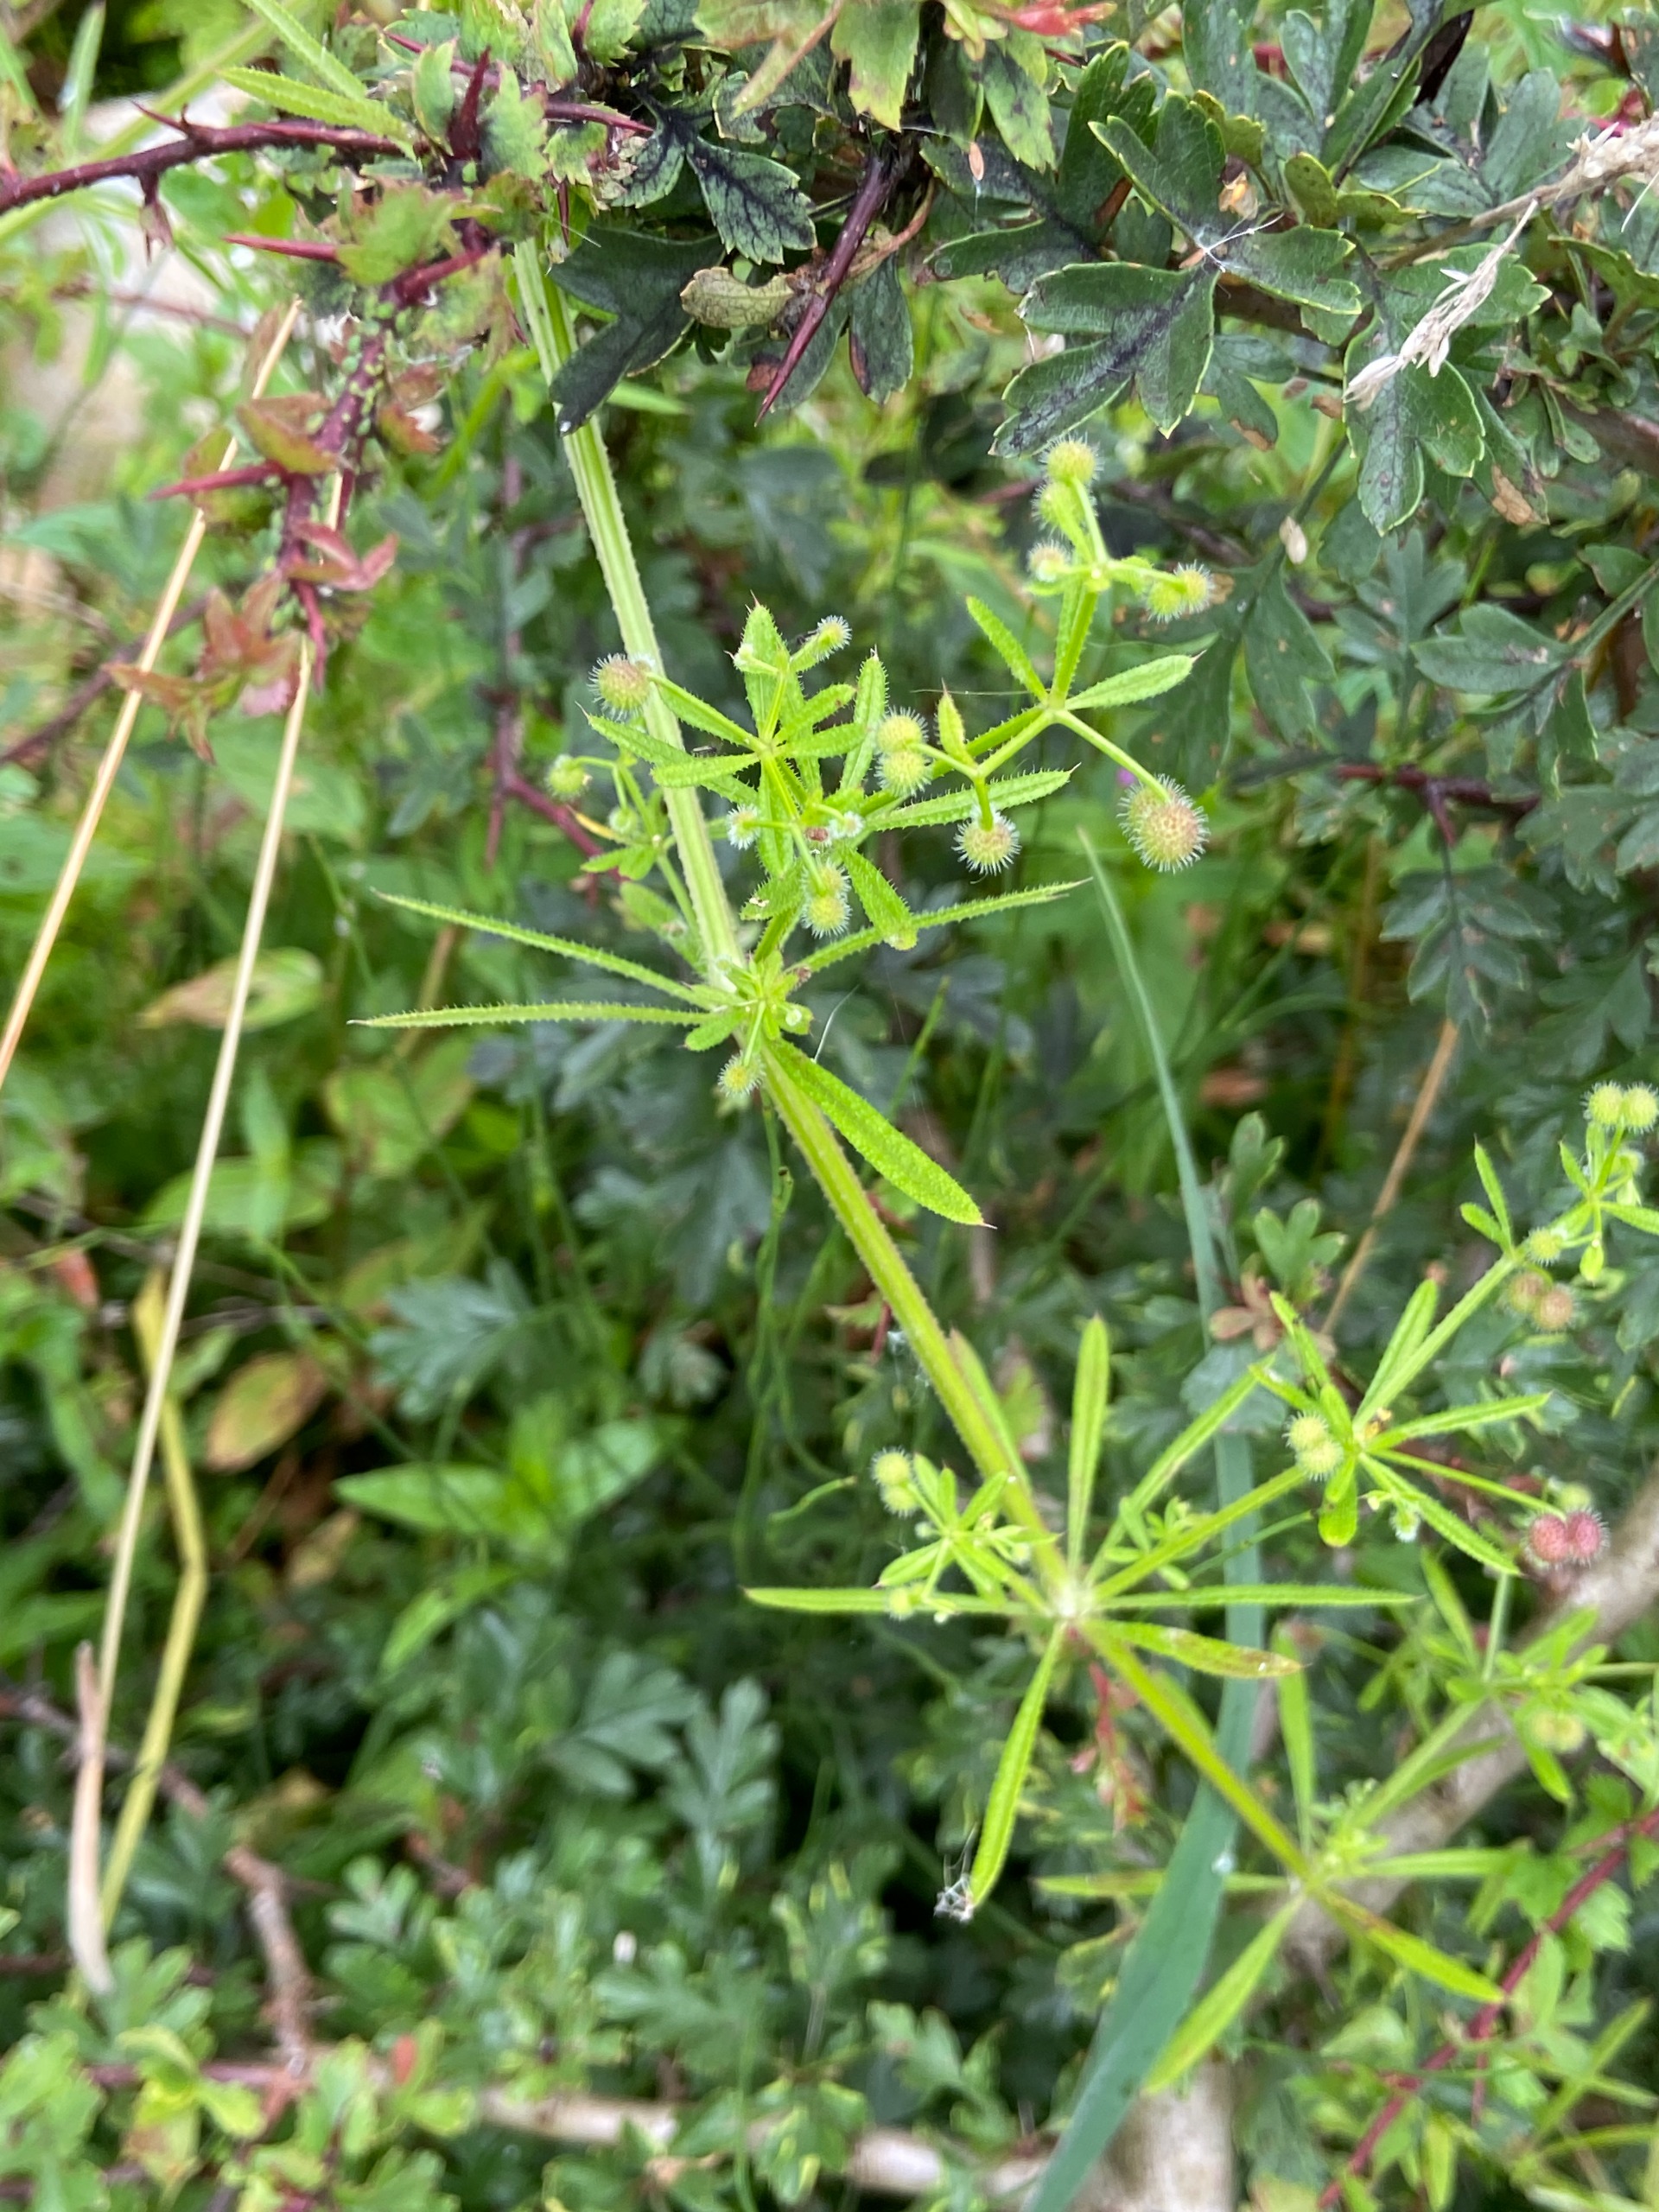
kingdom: Plantae
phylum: Tracheophyta
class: Magnoliopsida
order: Gentianales
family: Rubiaceae
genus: Galium
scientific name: Galium aparine
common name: Burre-snerre
